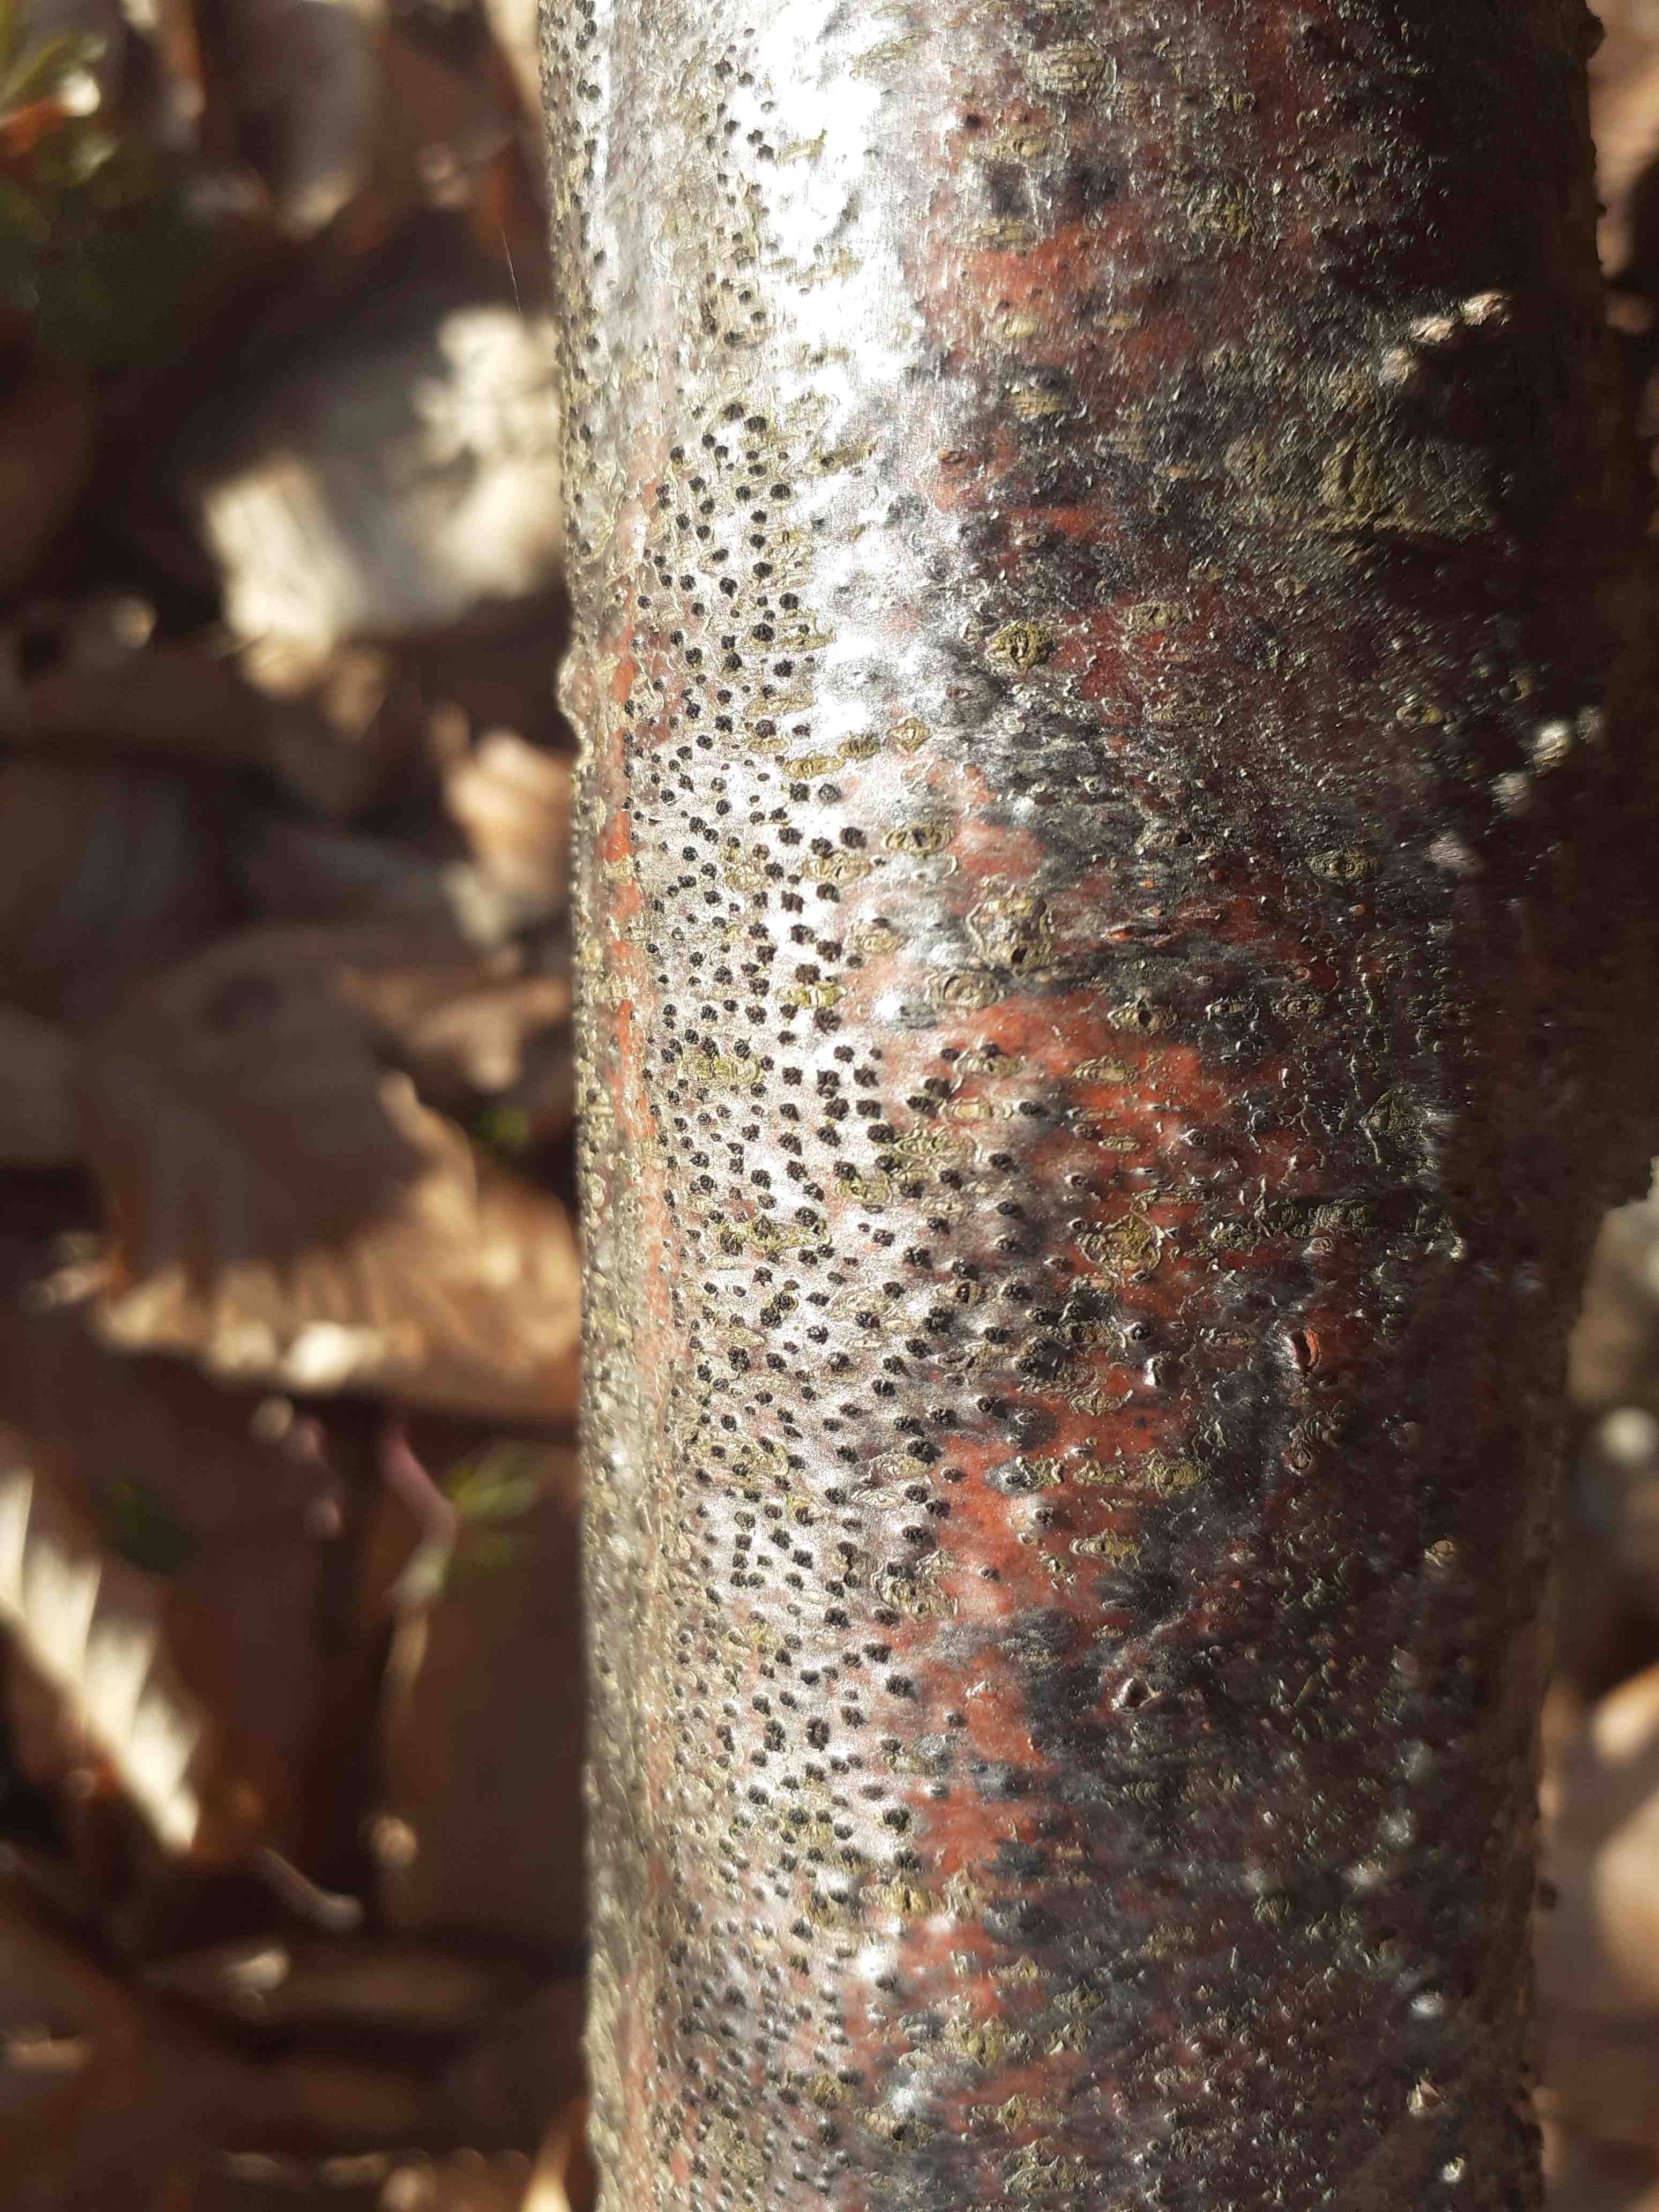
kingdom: Fungi
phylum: Ascomycota
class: Sordariomycetes
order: Xylariales
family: Diatrypaceae
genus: Eutypella
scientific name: Eutypella quaternata
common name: bøge-korsprik
